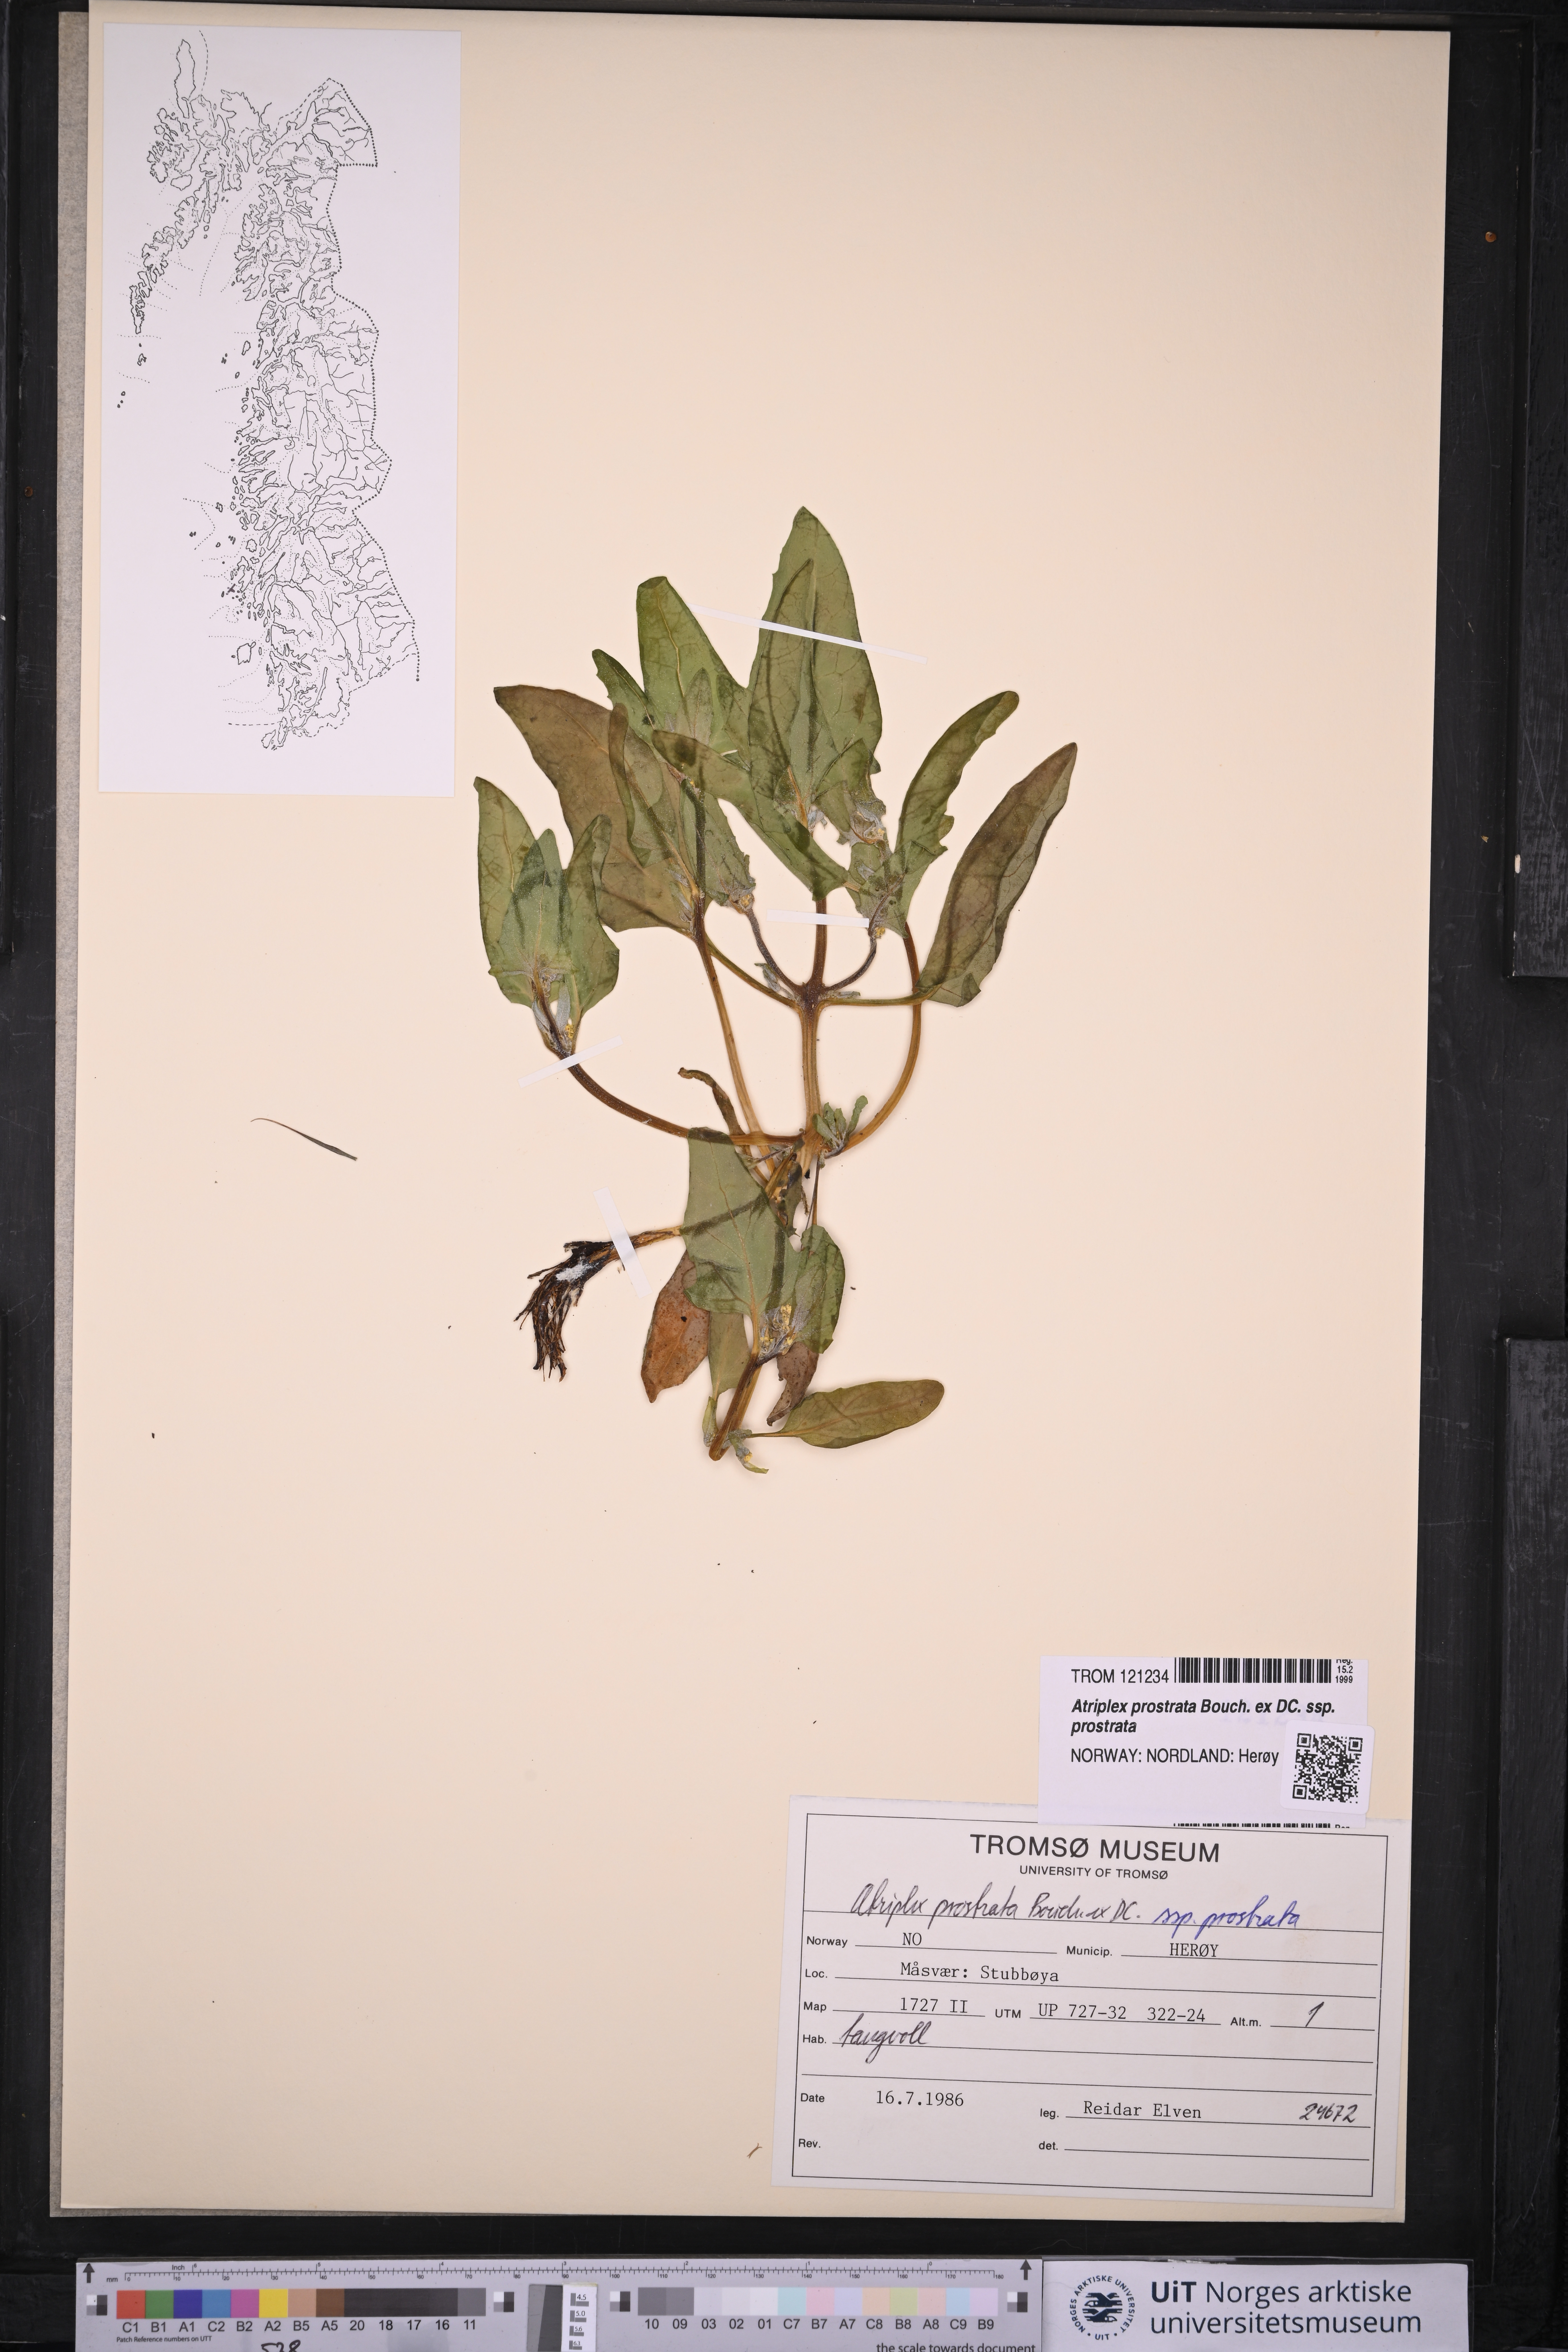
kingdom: Plantae
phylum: Tracheophyta
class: Magnoliopsida
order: Caryophyllales
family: Amaranthaceae
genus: Atriplex
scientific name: Atriplex prostrata
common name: Spear-leaved orache
